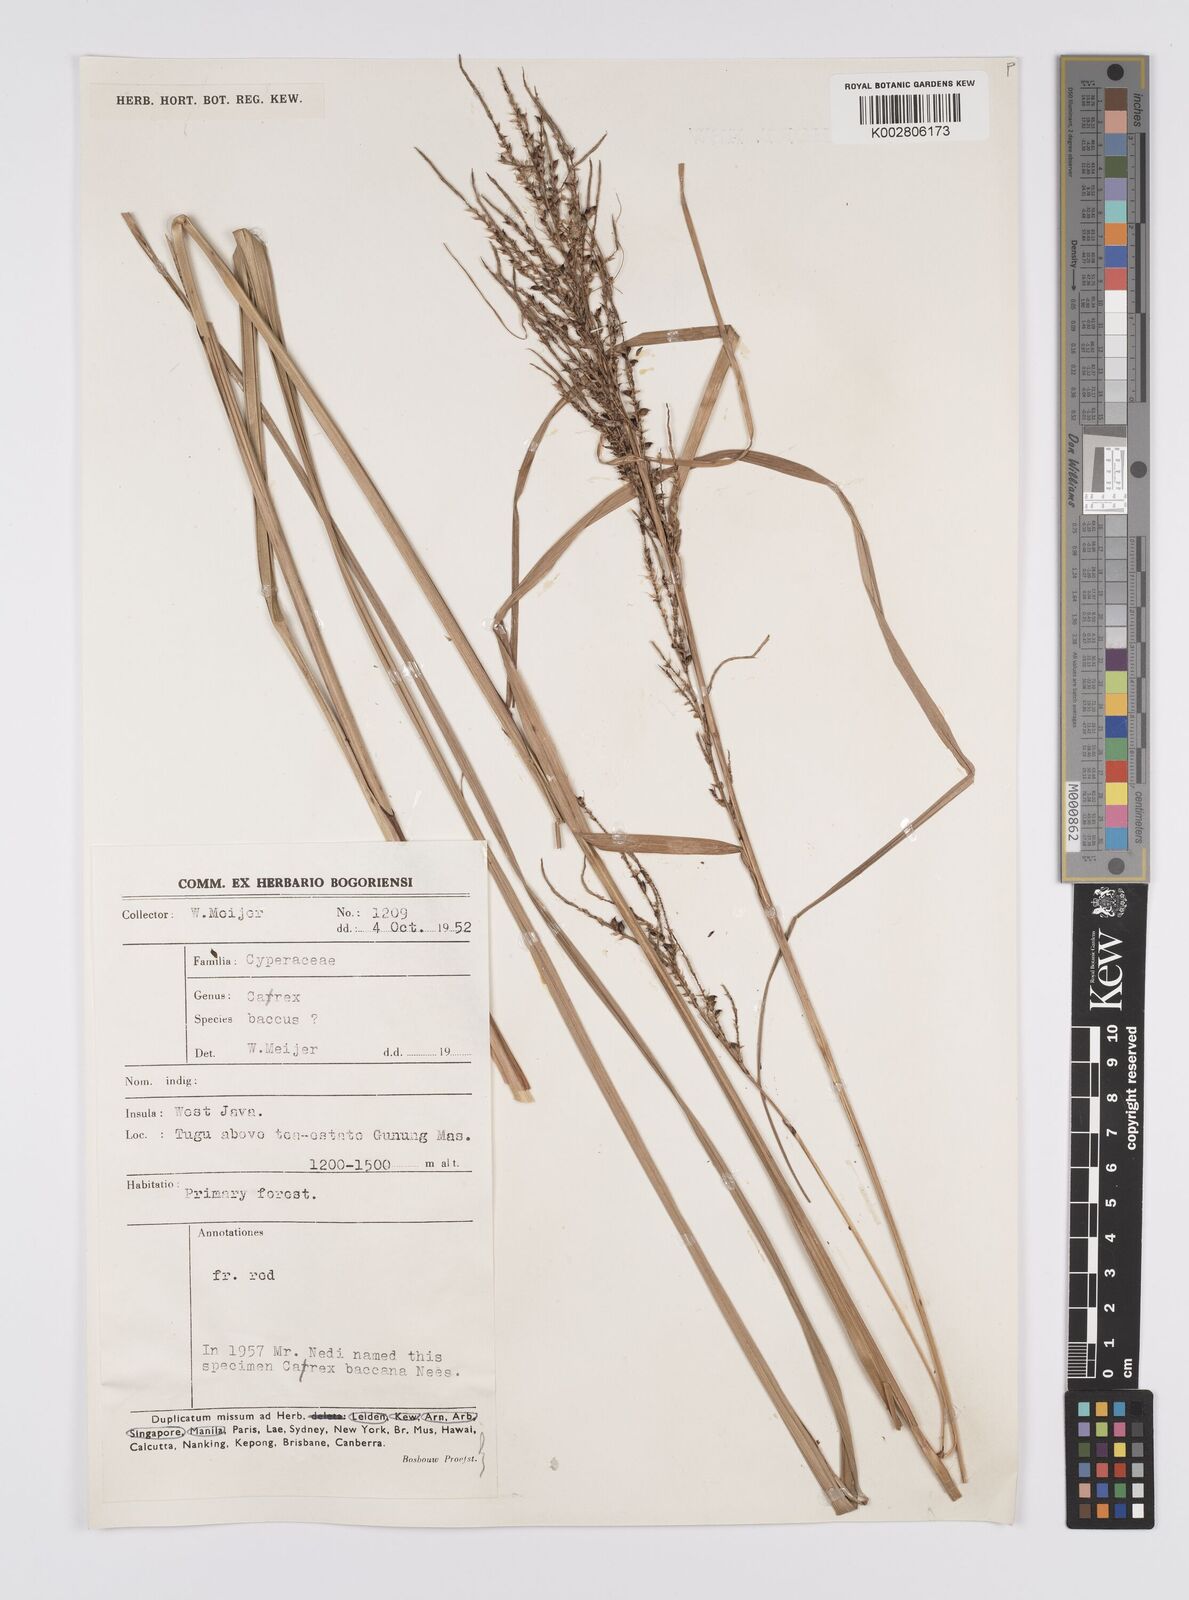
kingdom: Plantae
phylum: Tracheophyta
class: Liliopsida
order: Poales
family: Cyperaceae
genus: Carex
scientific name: Carex baccans
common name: Crimson seeded sedge
